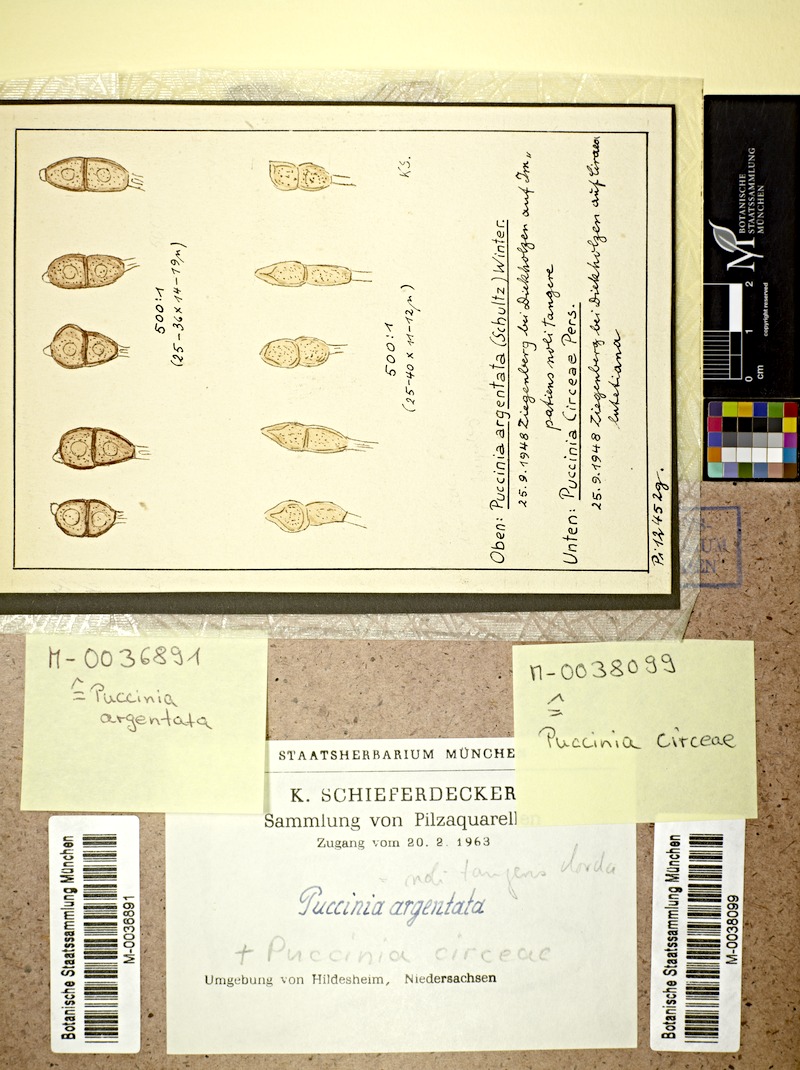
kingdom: Plantae
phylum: Tracheophyta
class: Magnoliopsida
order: Ericales
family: Balsaminaceae
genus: Impatiens
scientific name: Impatiens noli-tangere
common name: Touch-me-not balsam
